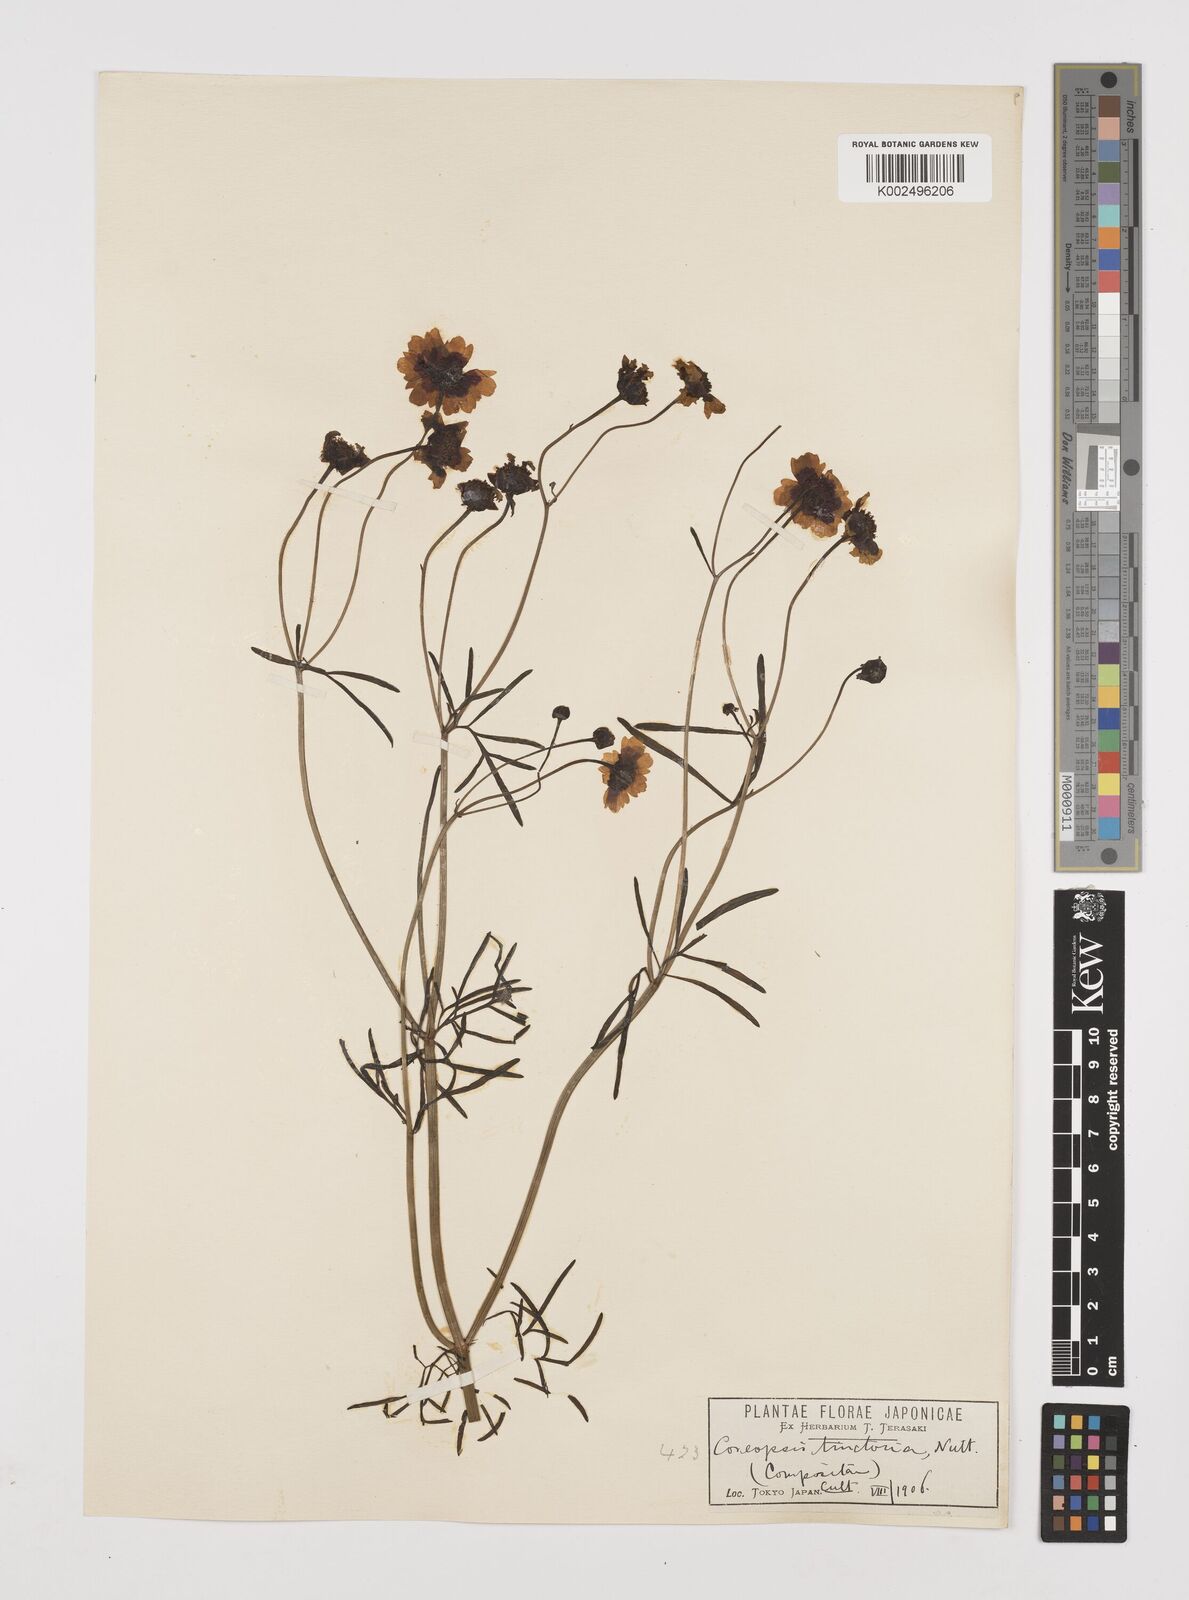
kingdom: Plantae
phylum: Tracheophyta
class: Magnoliopsida
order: Asterales
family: Asteraceae
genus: Coreopsis
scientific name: Coreopsis tinctoria
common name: Garden tickseed
